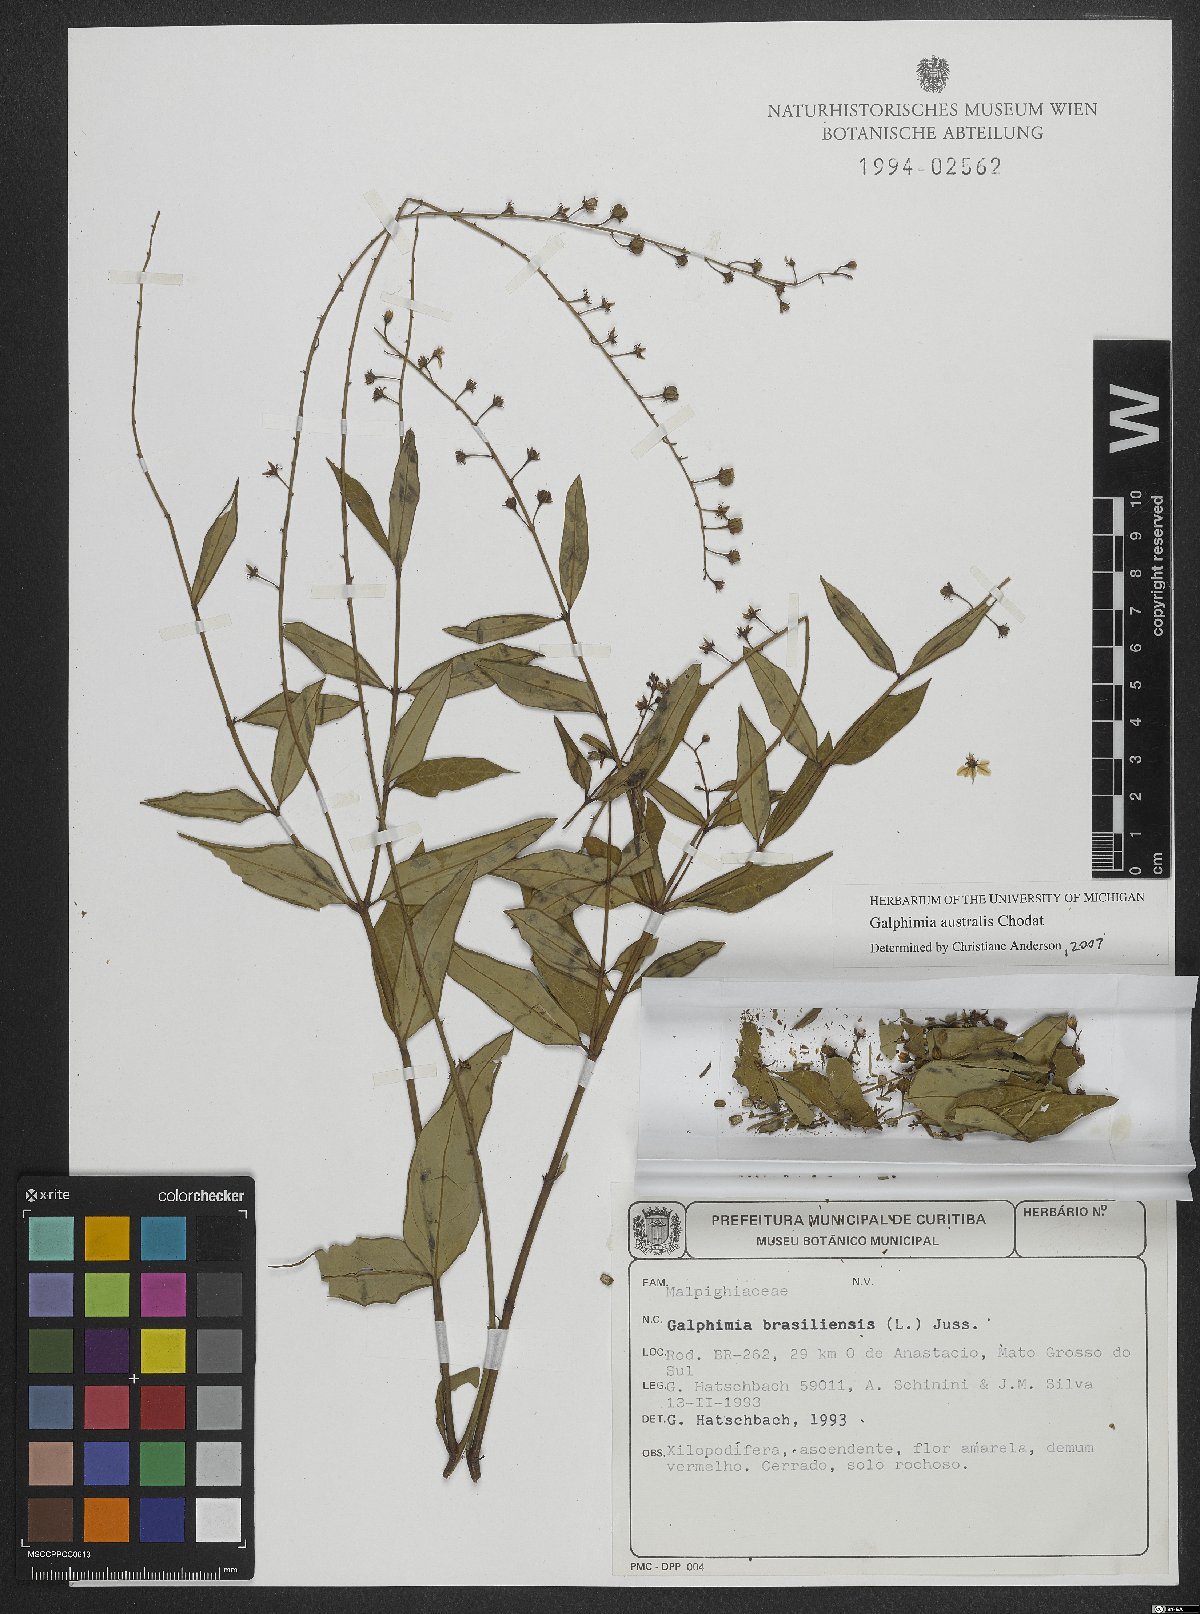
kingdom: Plantae
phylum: Tracheophyta
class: Magnoliopsida
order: Malpighiales
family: Malpighiaceae
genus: Galphimia
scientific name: Galphimia australis
